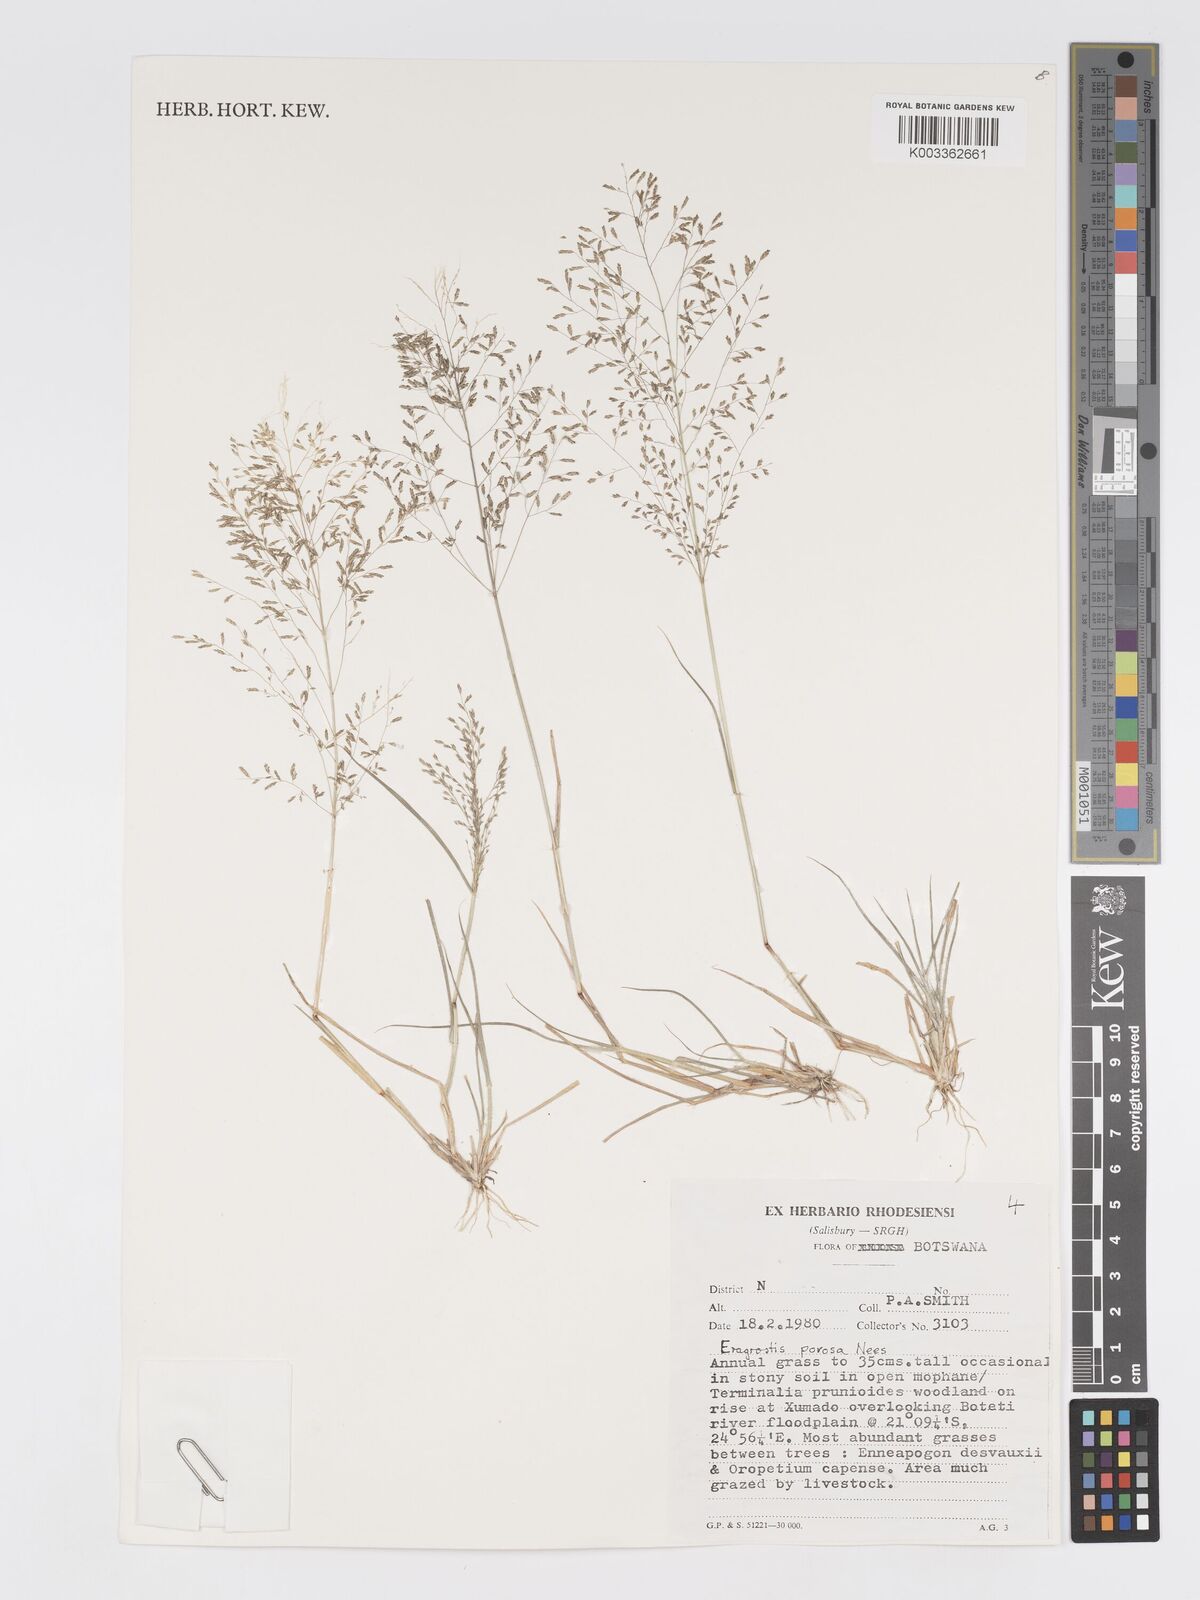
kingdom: Plantae
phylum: Tracheophyta
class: Liliopsida
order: Poales
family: Poaceae
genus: Eragrostis
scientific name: Eragrostis porosa
